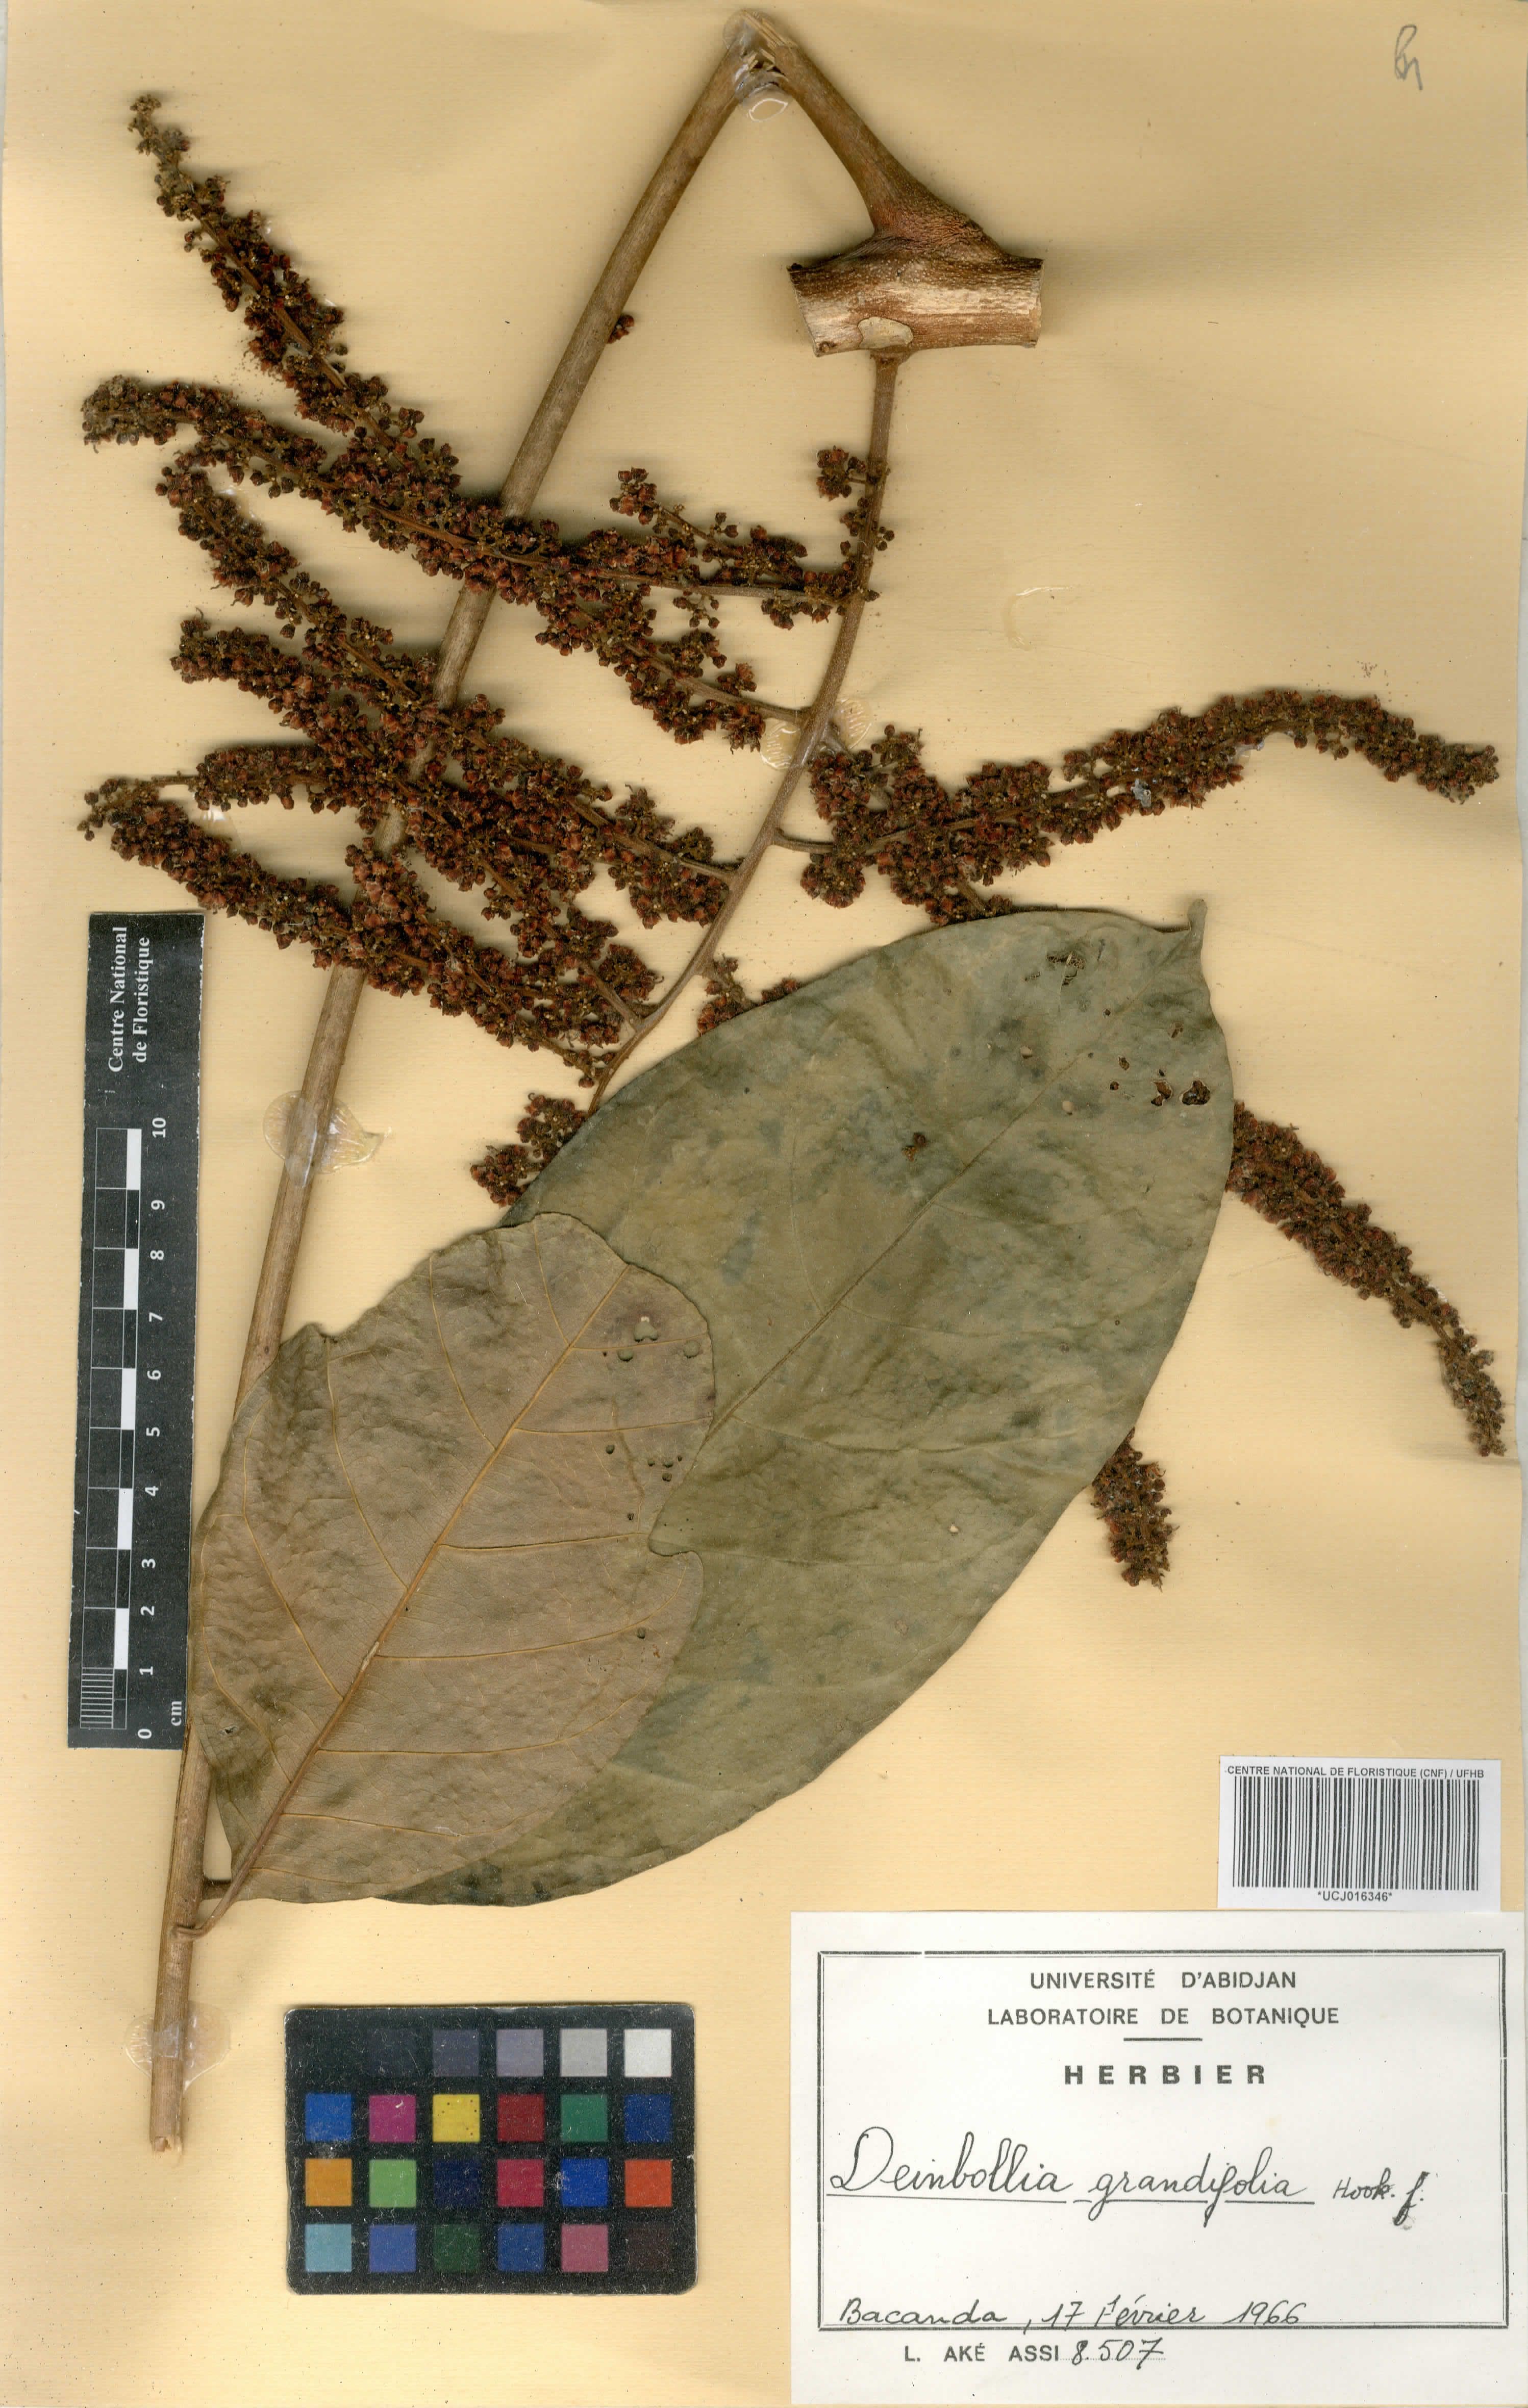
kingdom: Plantae
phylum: Tracheophyta
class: Magnoliopsida
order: Sapindales
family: Sapindaceae
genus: Deinbollia
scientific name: Deinbollia grandifolia
